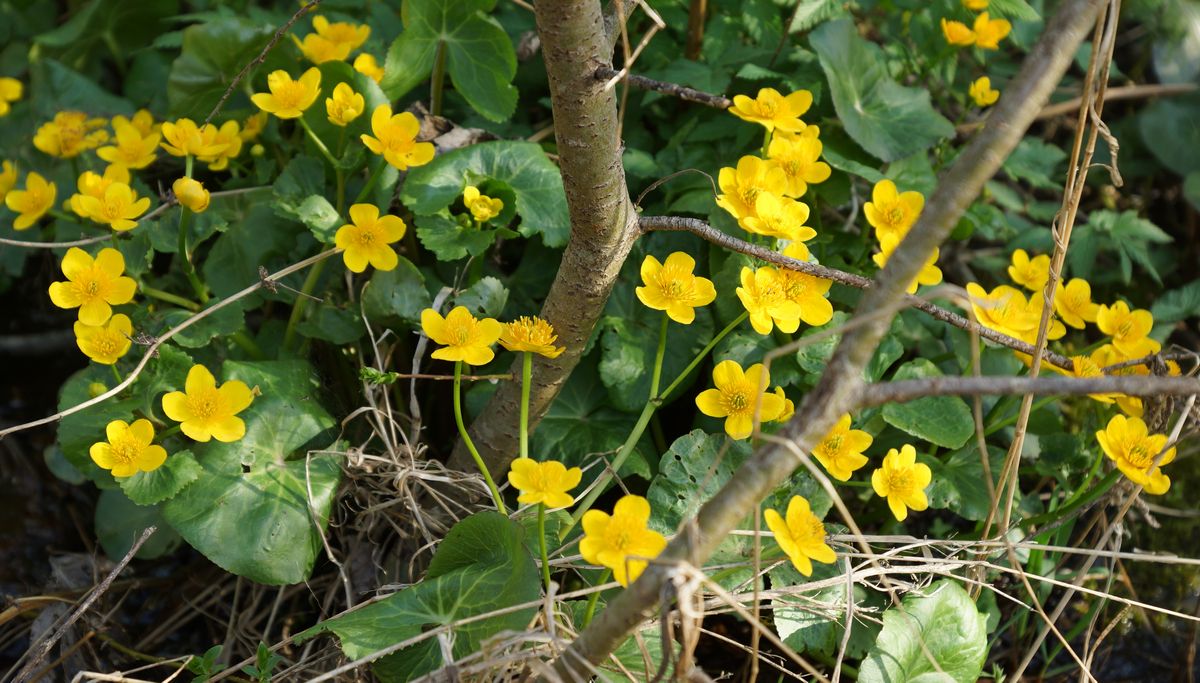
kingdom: Plantae
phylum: Tracheophyta
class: Magnoliopsida
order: Ranunculales
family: Ranunculaceae
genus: Caltha
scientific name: Caltha palustris
